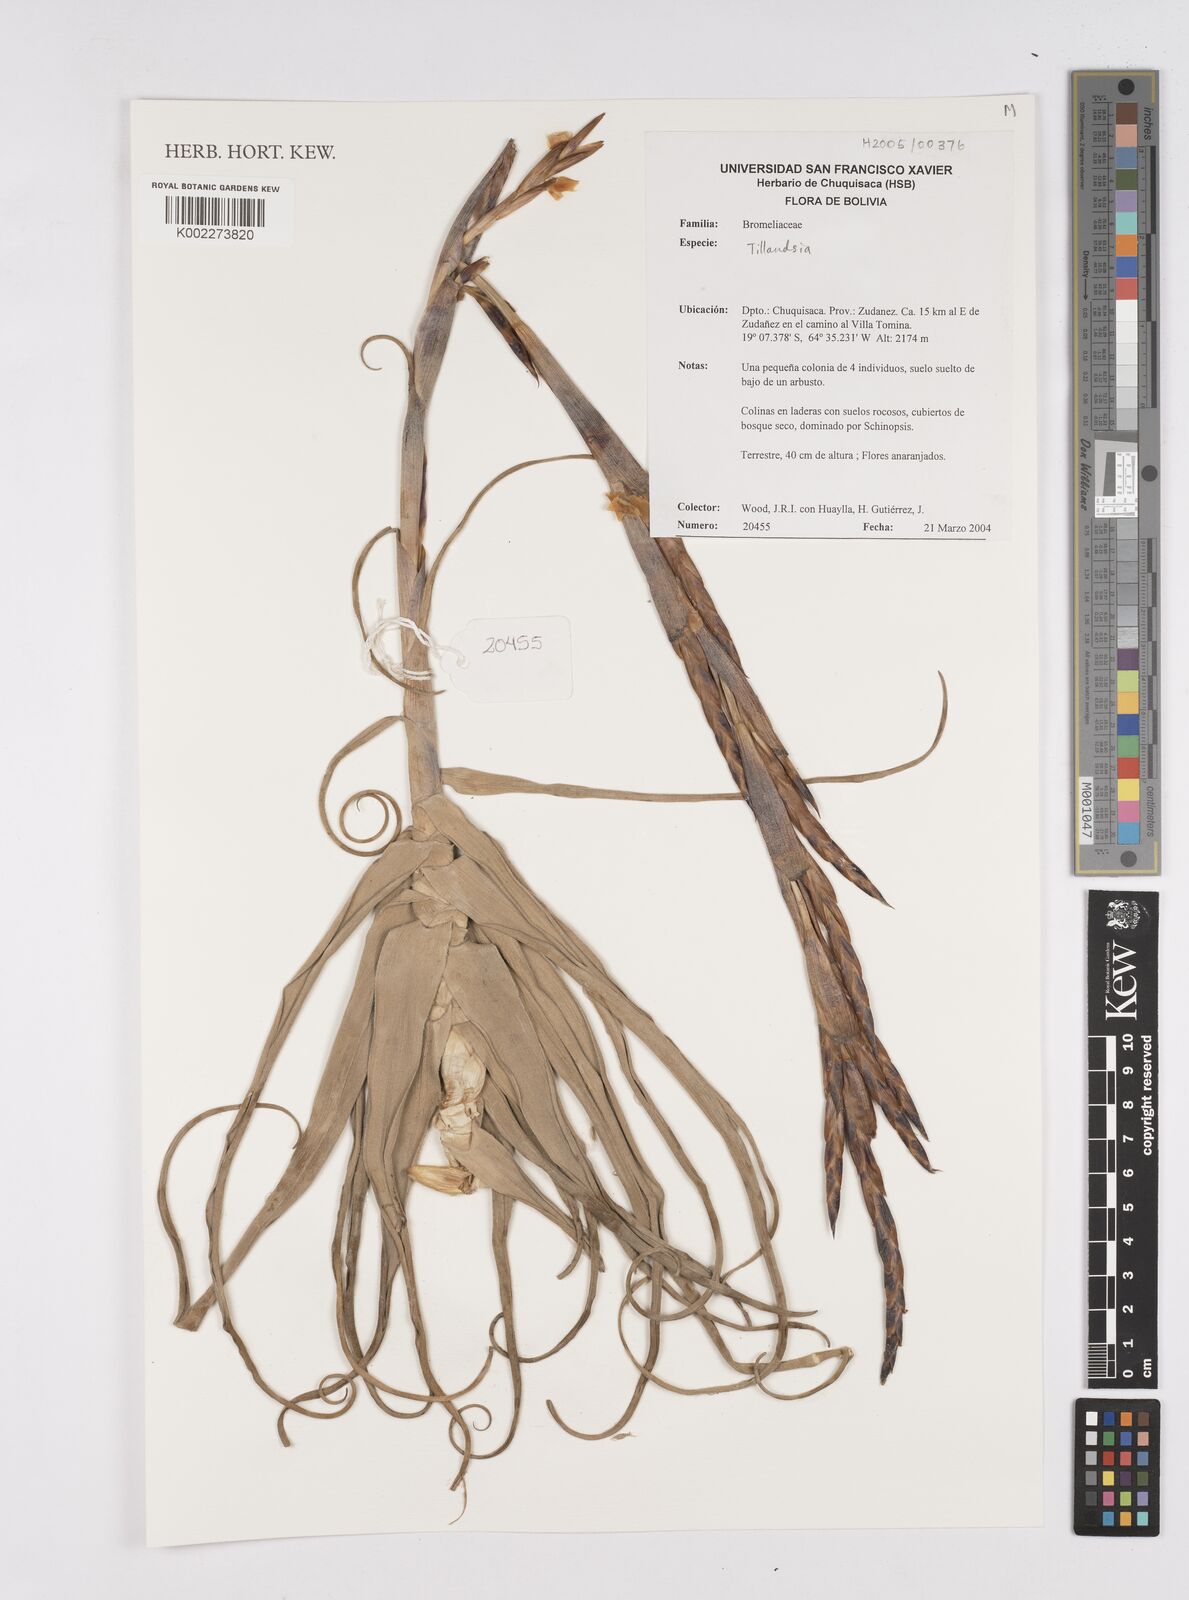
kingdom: Plantae
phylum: Tracheophyta
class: Liliopsida
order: Poales
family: Bromeliaceae
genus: Tillandsia
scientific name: Tillandsia
